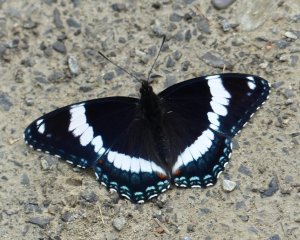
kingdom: Animalia
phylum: Arthropoda
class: Insecta
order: Lepidoptera
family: Nymphalidae
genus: Limenitis
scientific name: Limenitis arthemis
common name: Red-spotted Admiral
